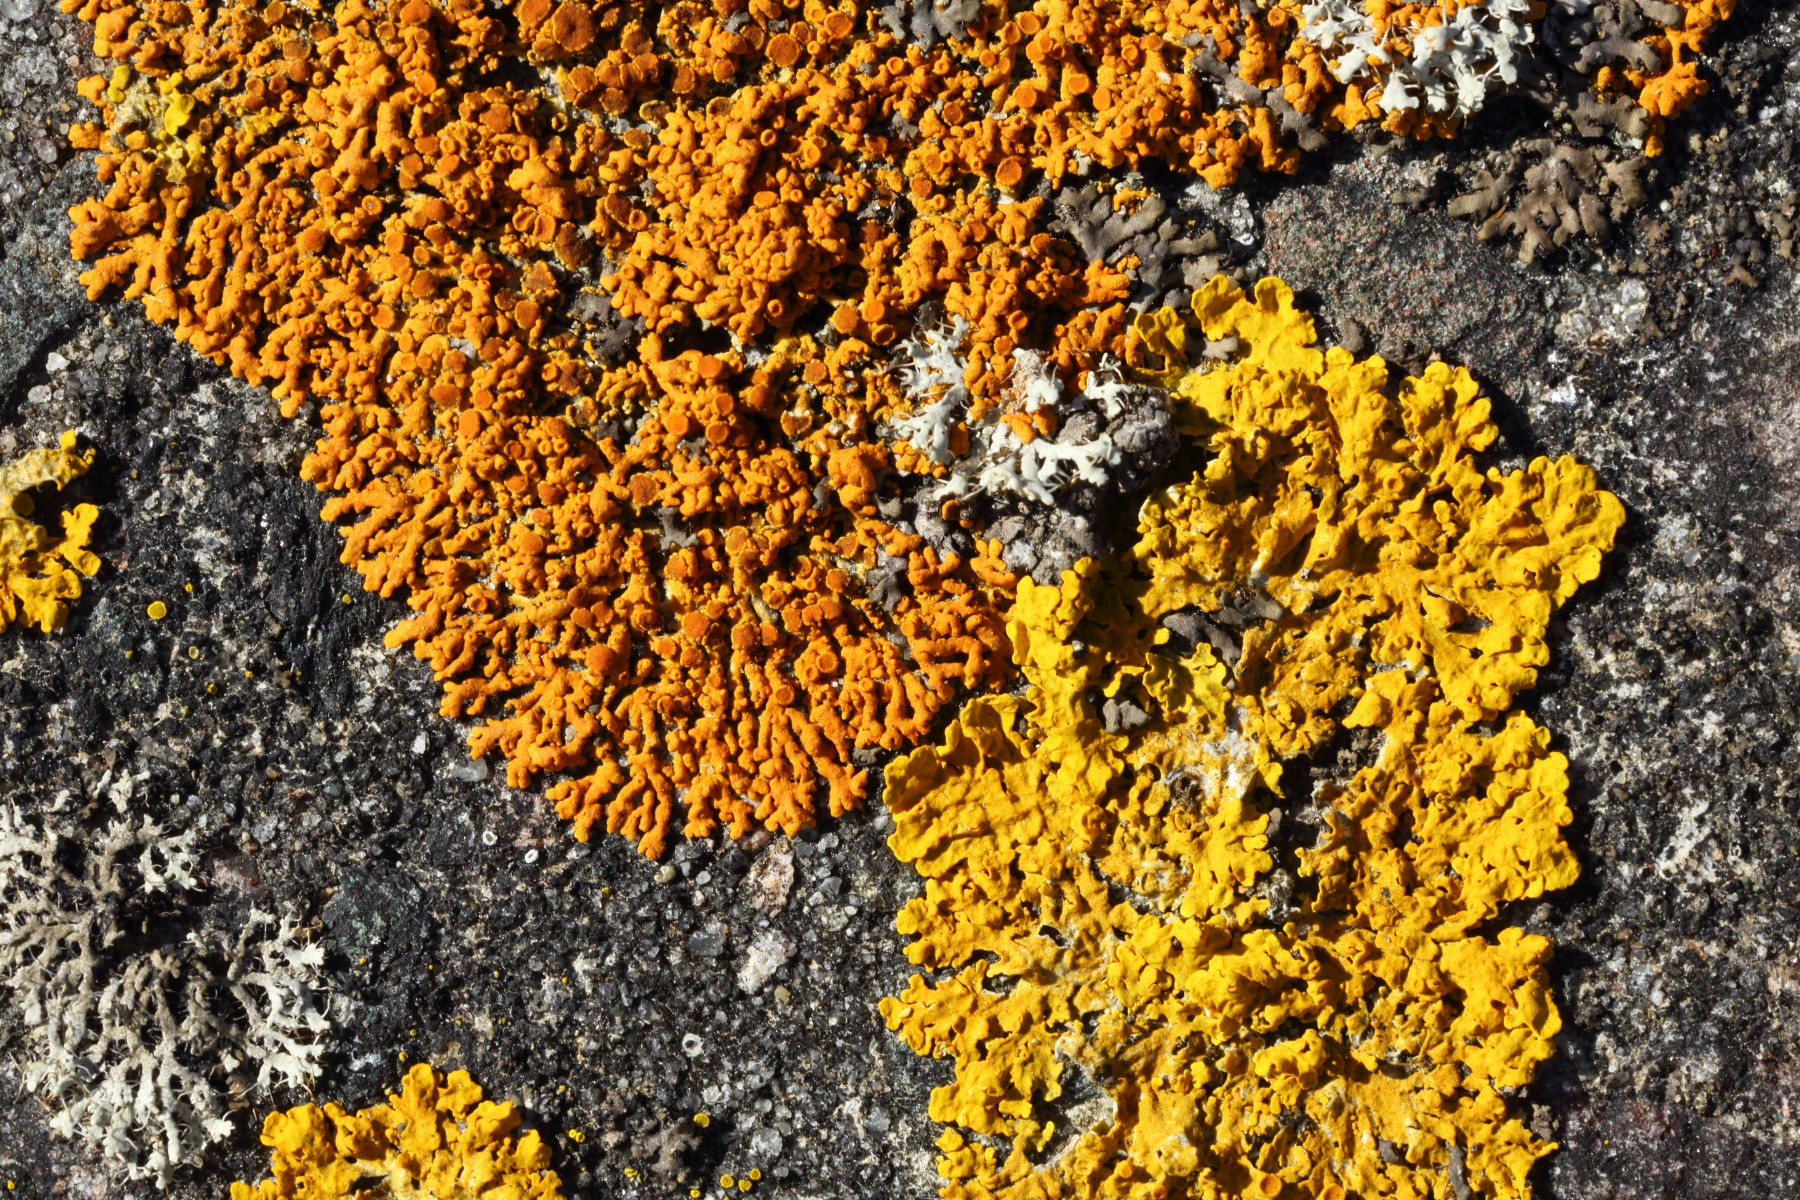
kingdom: Fungi
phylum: Ascomycota
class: Lecanoromycetes
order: Caliciales
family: Physciaceae
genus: Physcia
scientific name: Physcia tenella
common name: spæd rosetlav
